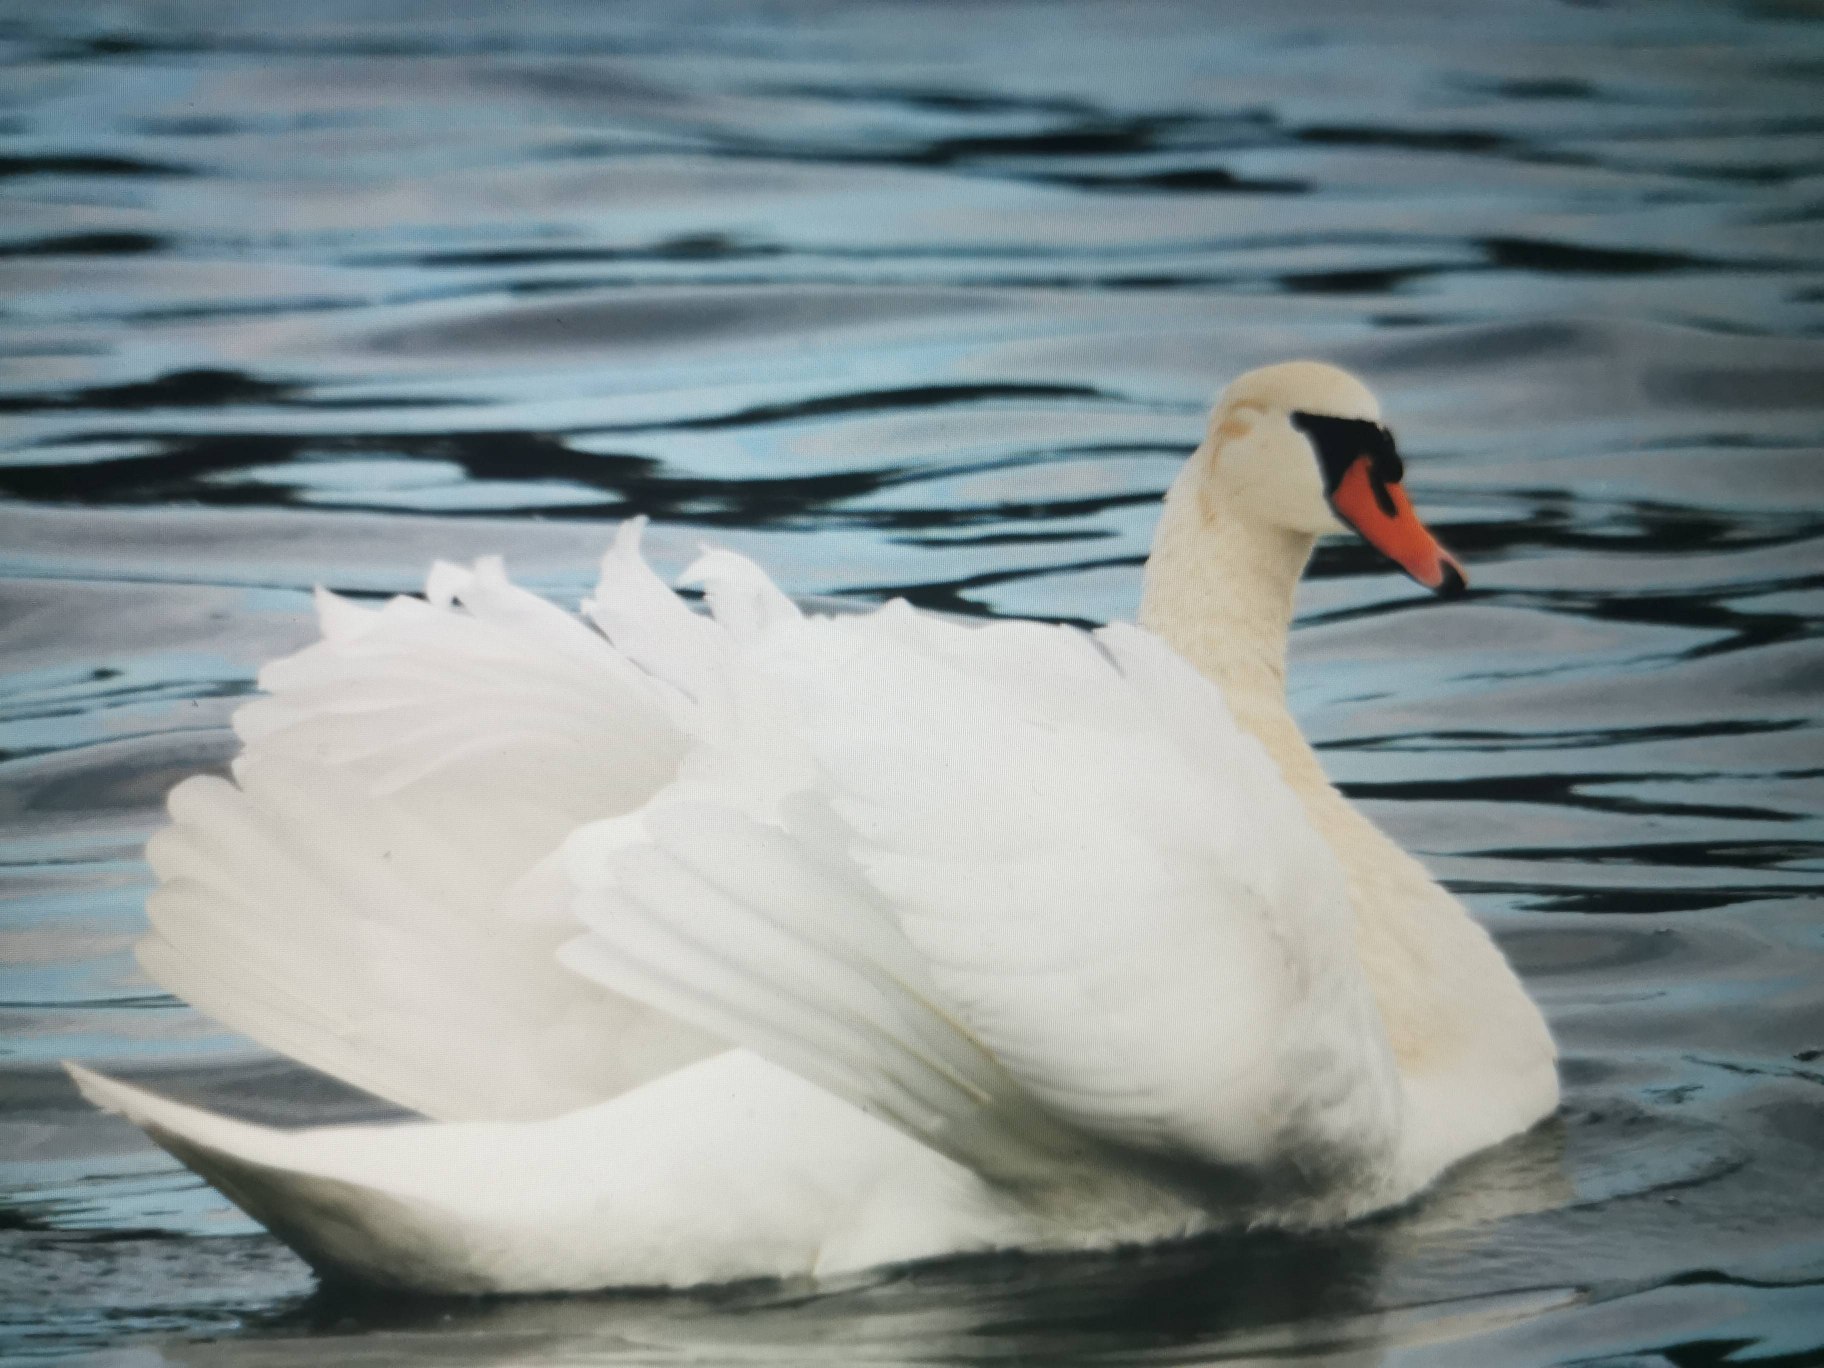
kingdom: Animalia
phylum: Chordata
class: Aves
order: Anseriformes
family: Anatidae
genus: Cygnus
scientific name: Cygnus olor
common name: Knopsvane
